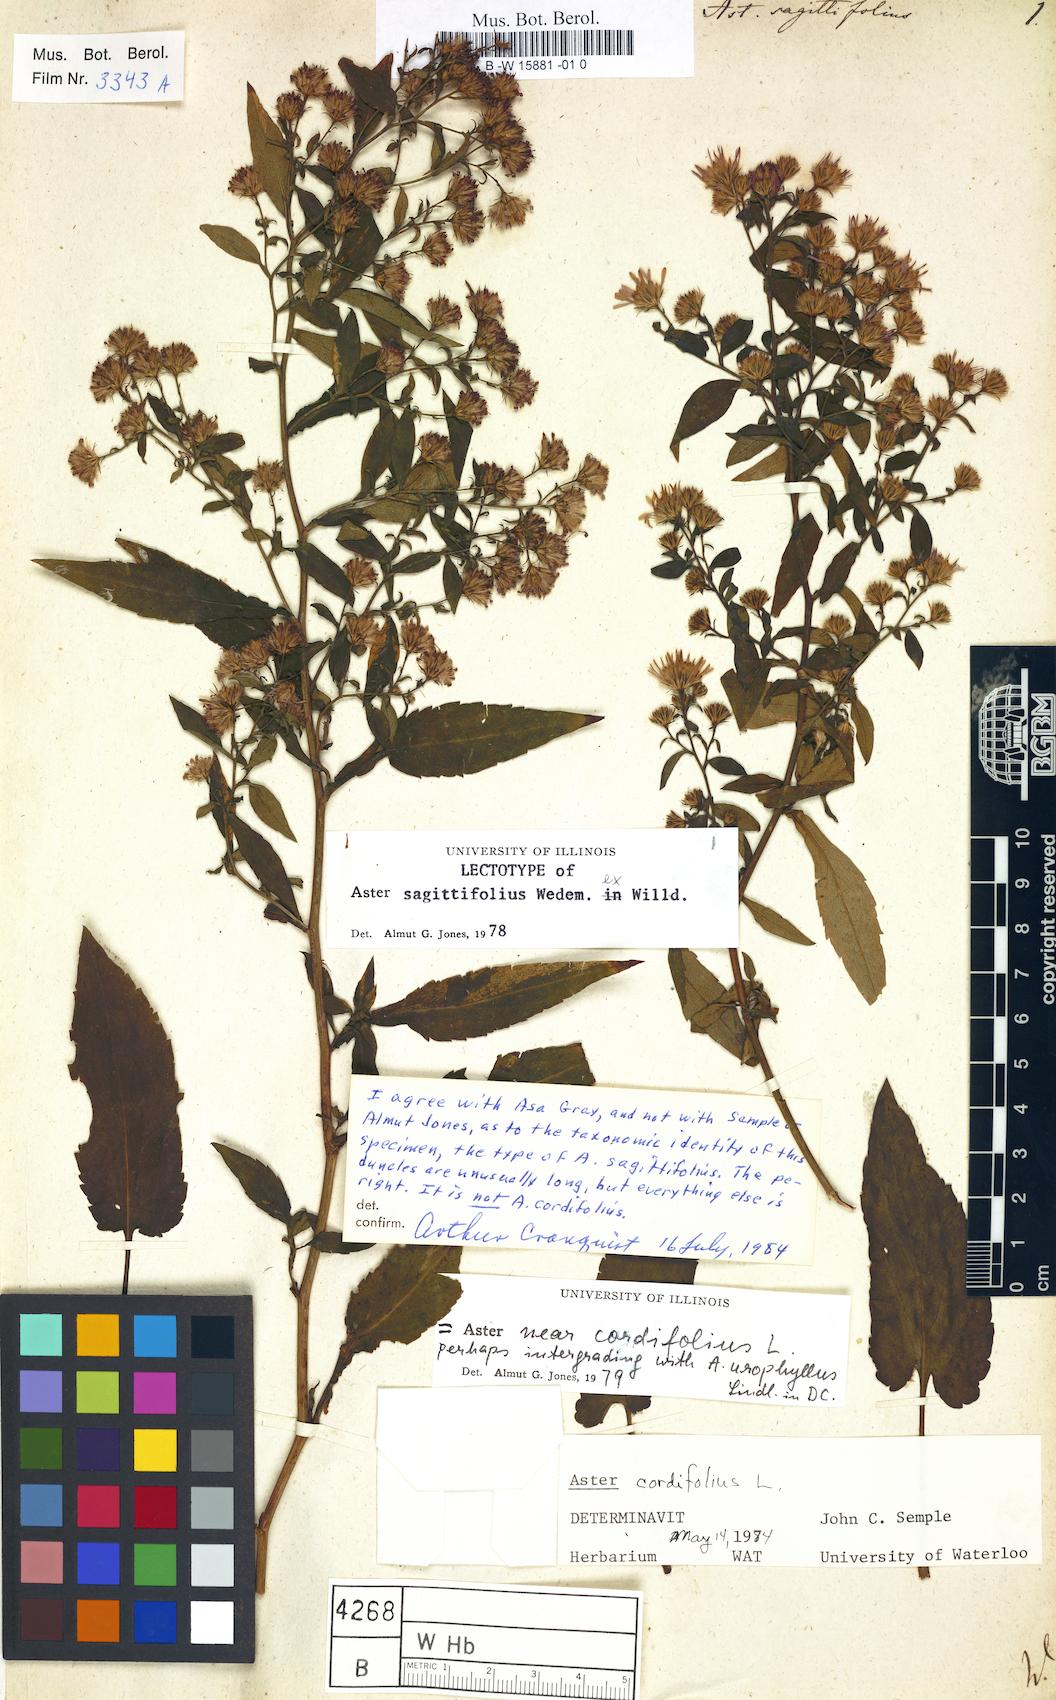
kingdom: Plantae
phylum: Tracheophyta
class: Magnoliopsida
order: Asterales
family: Asteraceae
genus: Symphyotrichum
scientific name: Symphyotrichum cordifolium
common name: Beeweed
